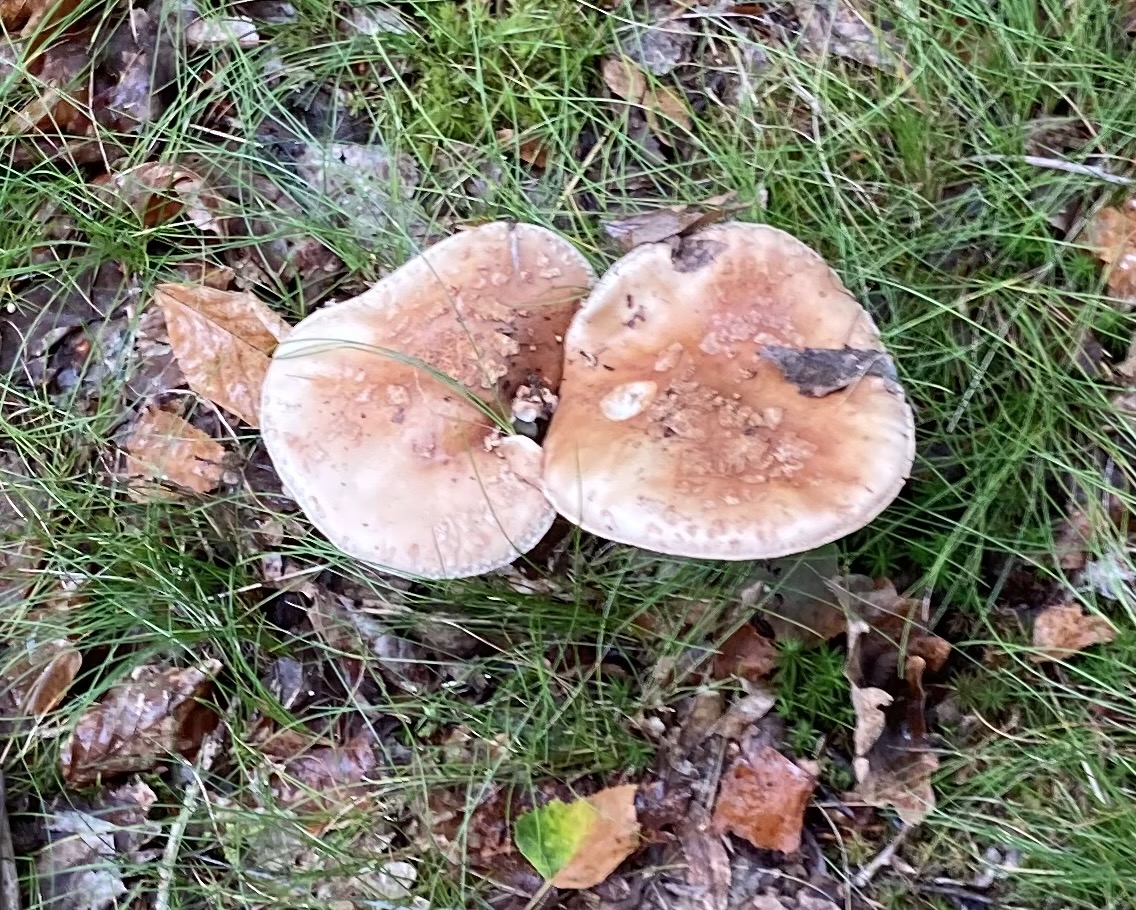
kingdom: Fungi
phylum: Basidiomycota
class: Agaricomycetes
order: Agaricales
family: Amanitaceae
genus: Amanita
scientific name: Amanita rubescens
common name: rødmende fluesvamp
